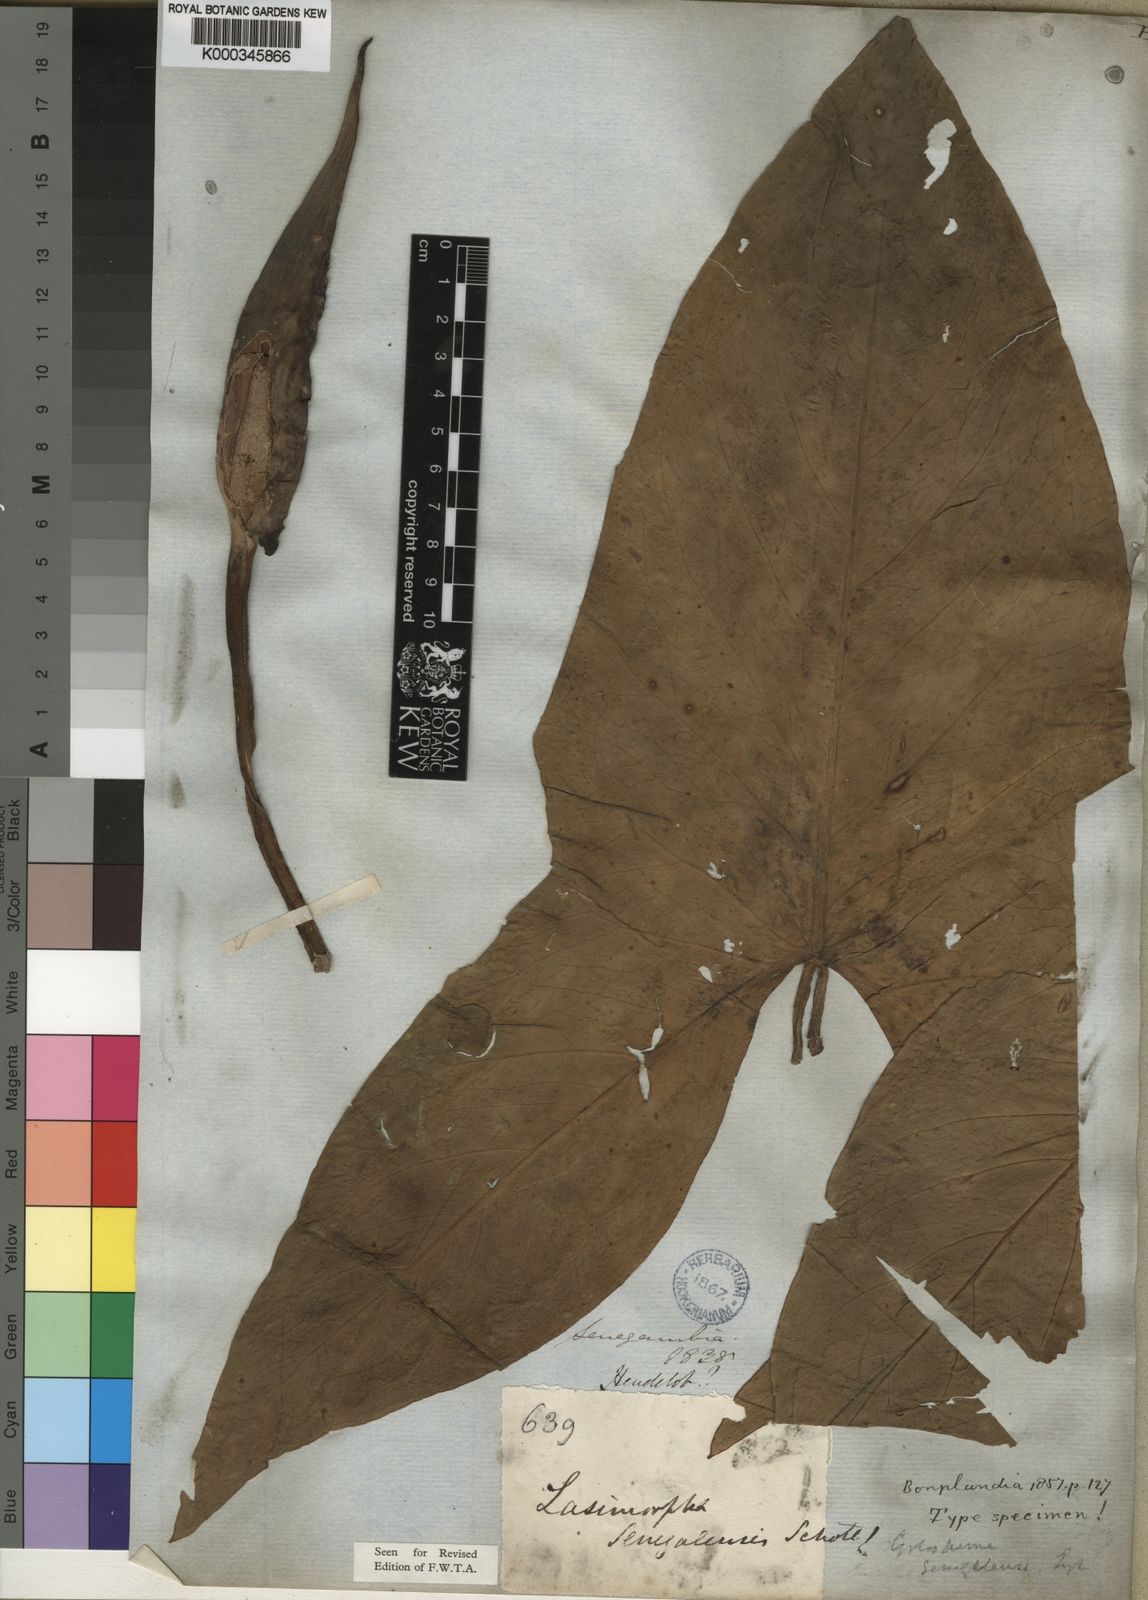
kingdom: Plantae
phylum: Tracheophyta
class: Liliopsida
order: Alismatales
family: Araceae
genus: Lasimorpha
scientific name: Lasimorpha senegalensis
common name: Swamp arum
